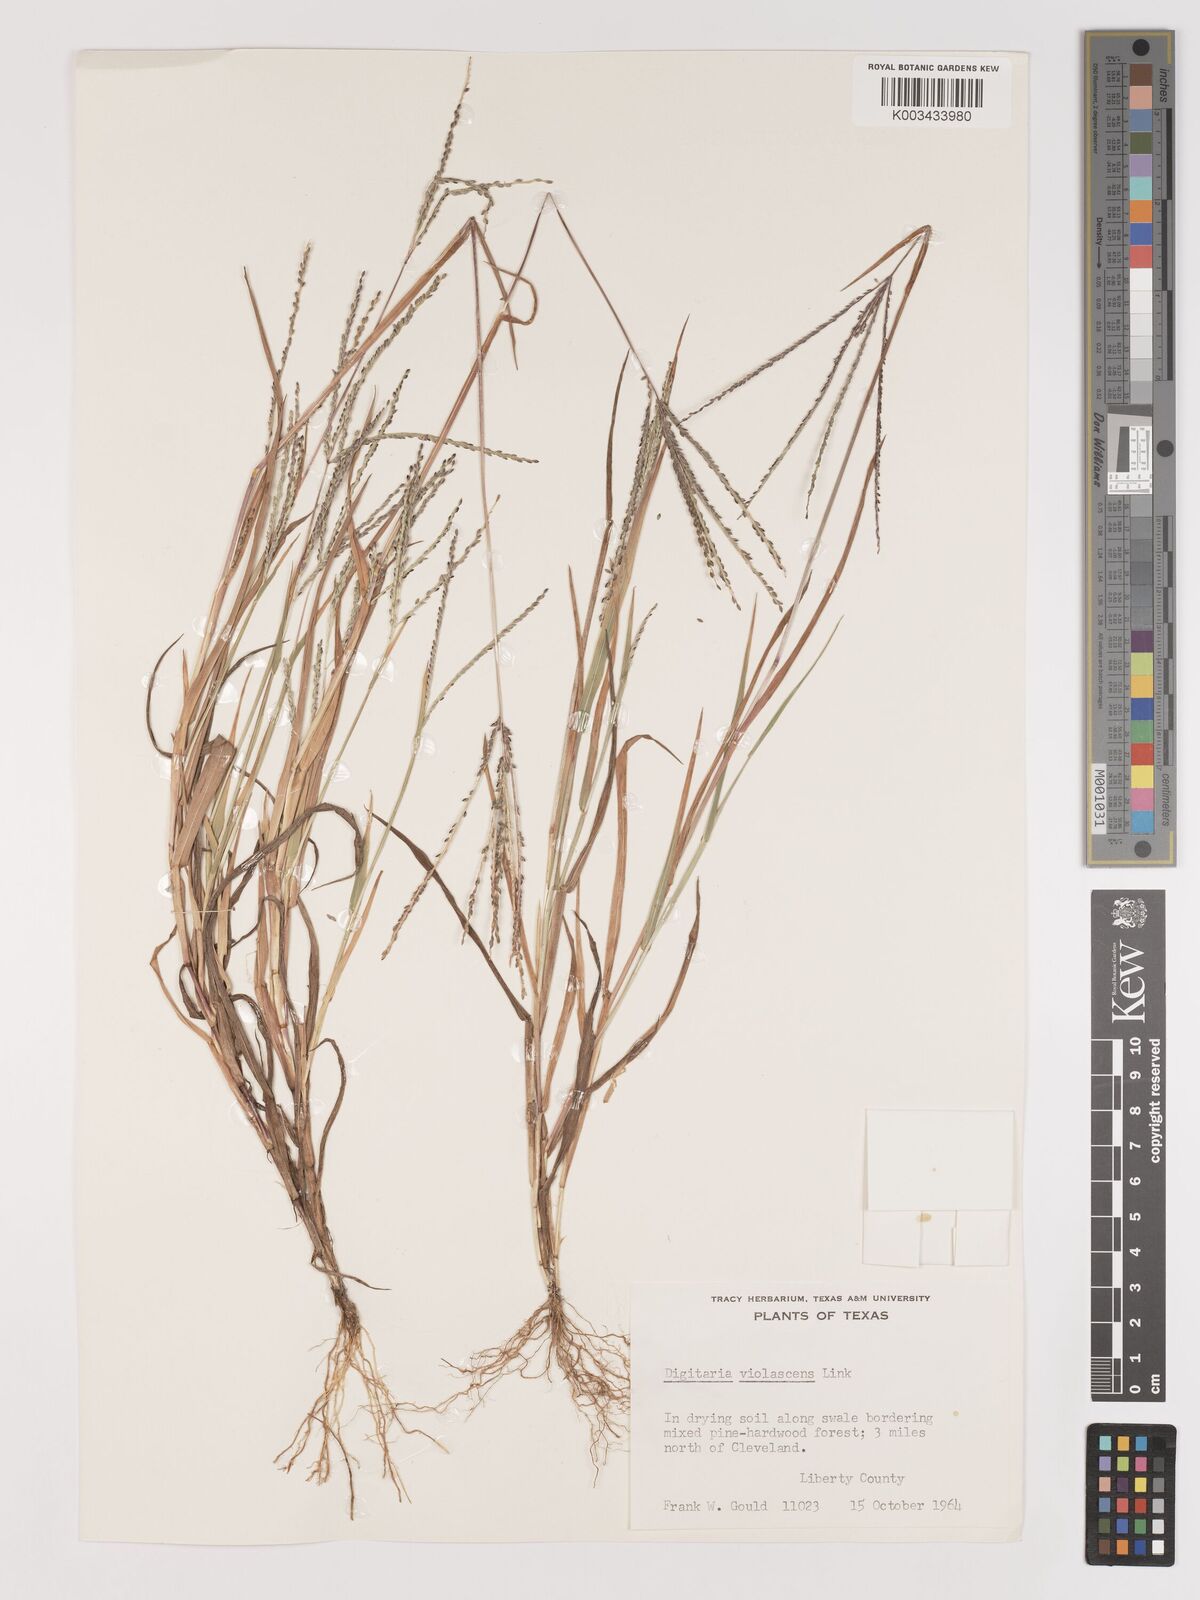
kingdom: Plantae
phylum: Tracheophyta
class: Liliopsida
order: Poales
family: Poaceae
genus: Digitaria
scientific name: Digitaria violascens
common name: Violet crabgrass
